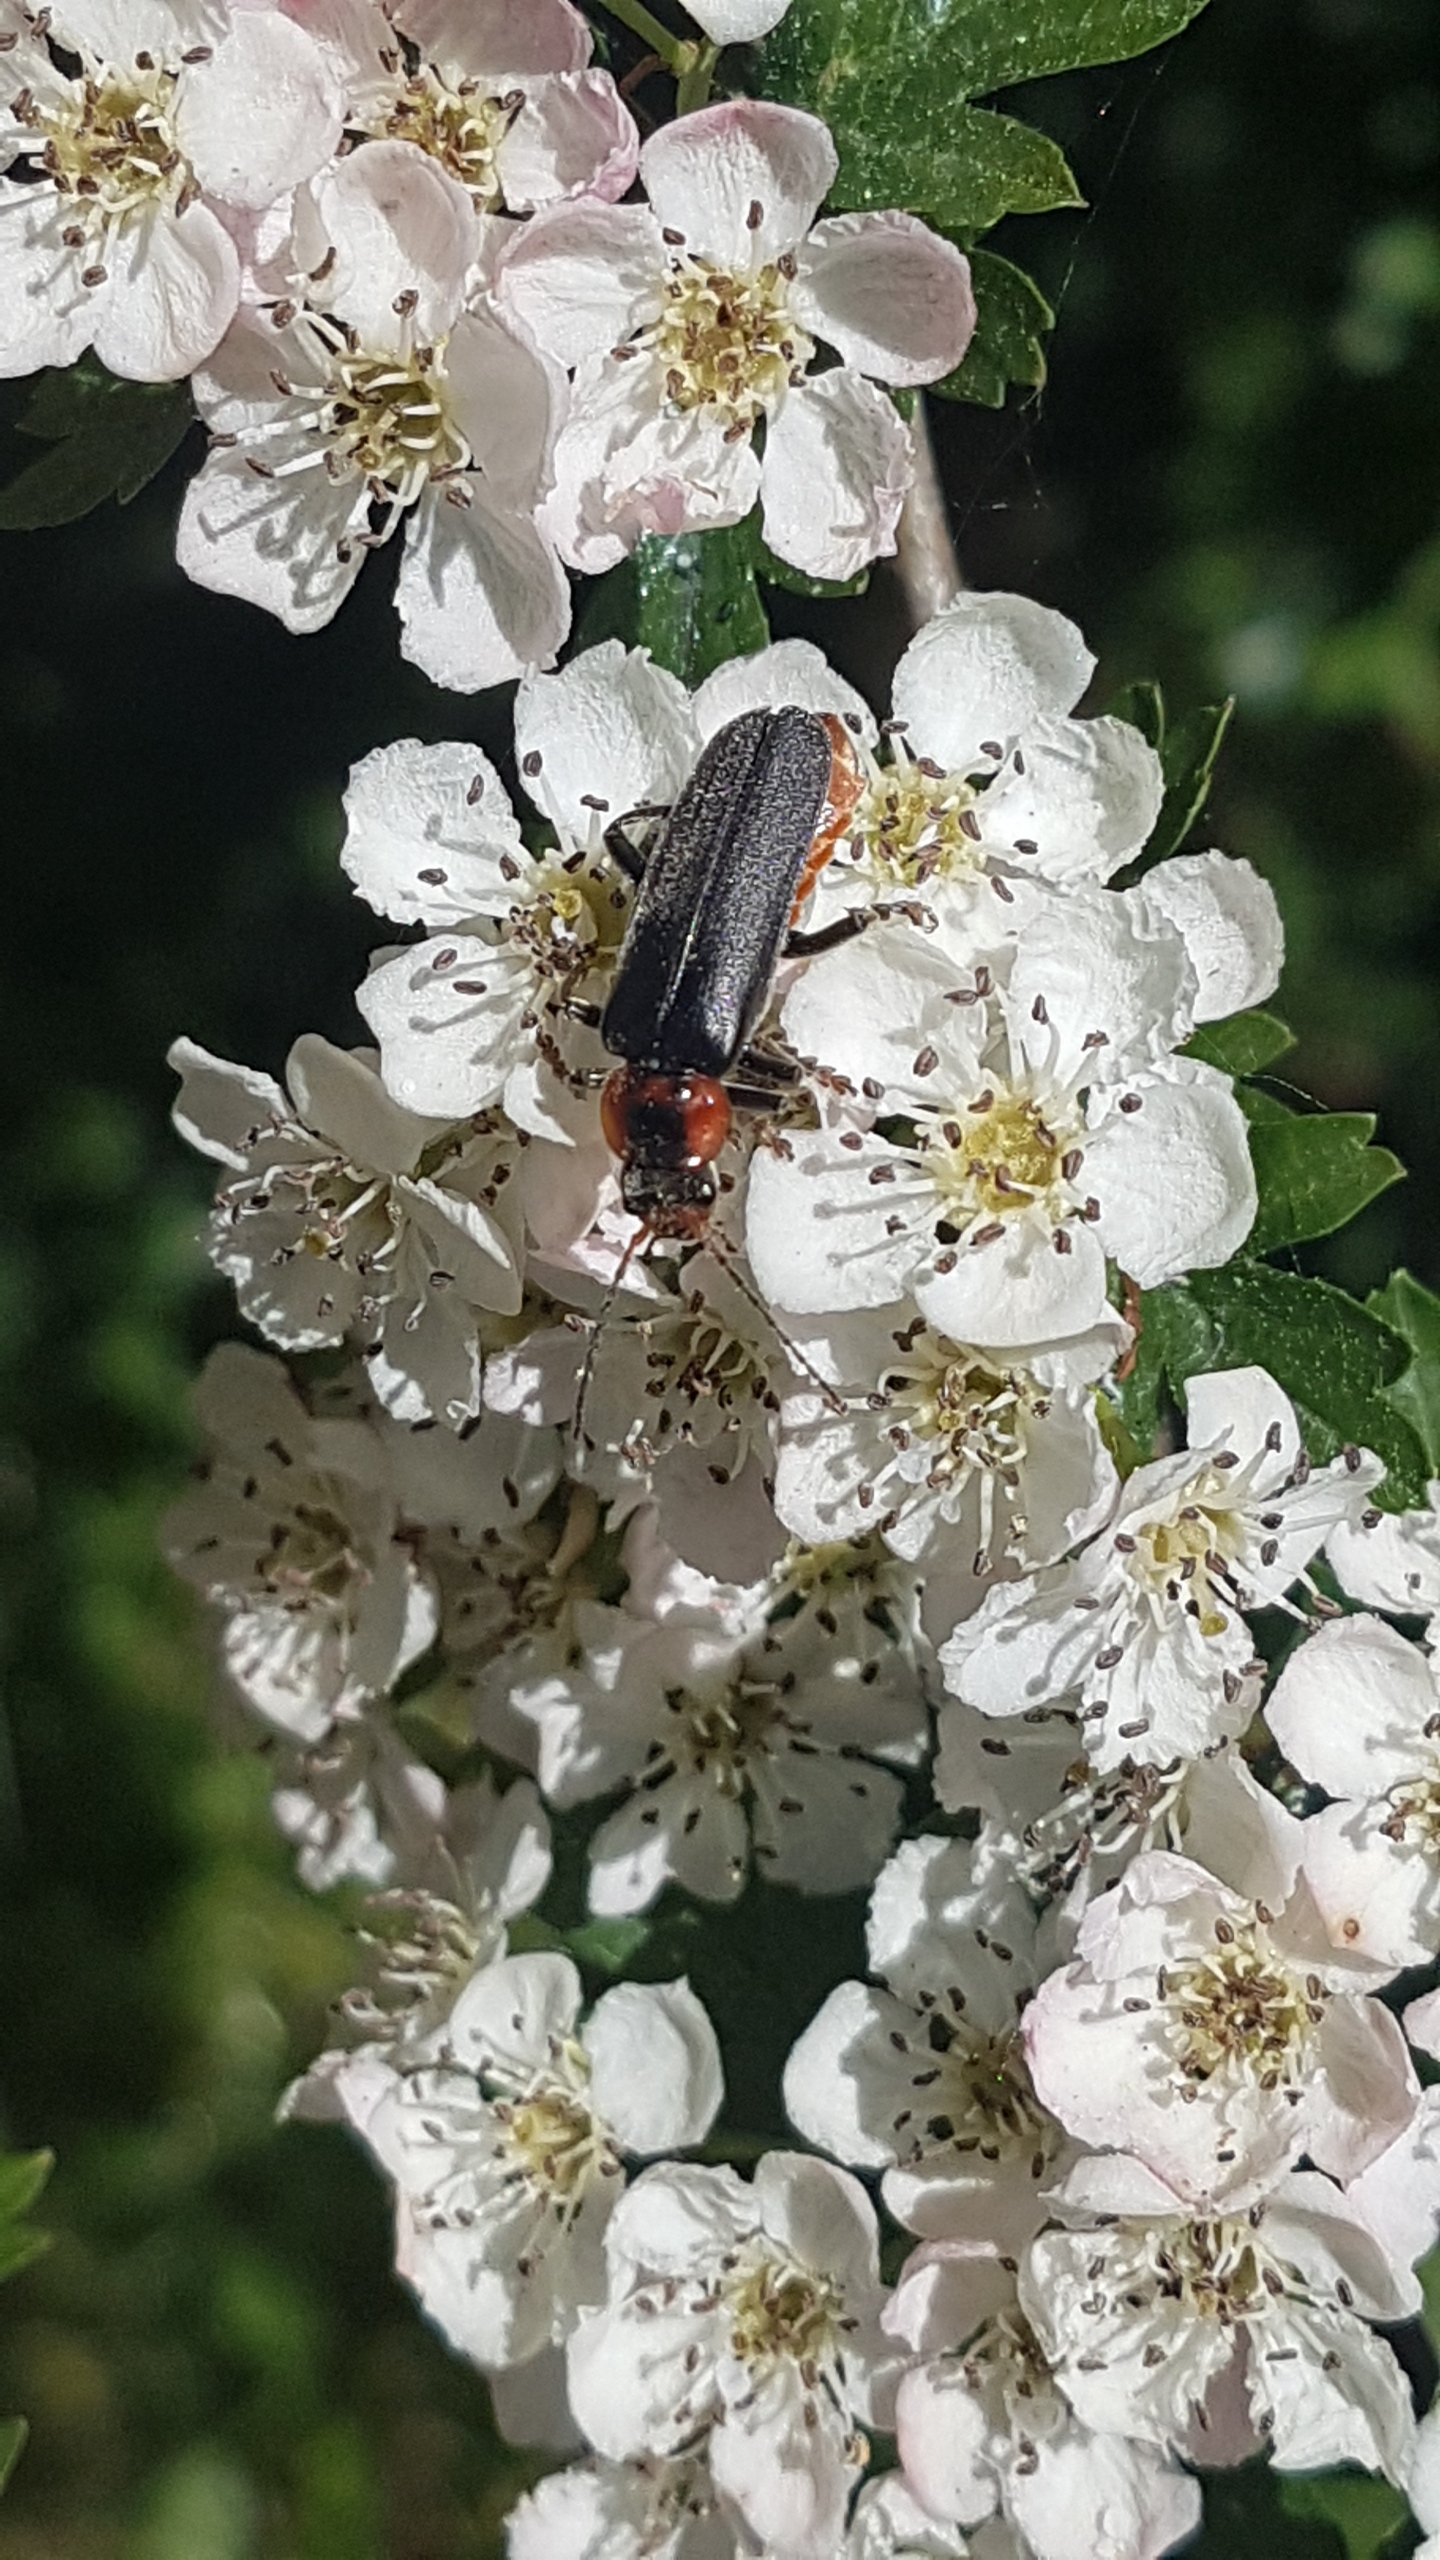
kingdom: Animalia
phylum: Arthropoda
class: Insecta
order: Coleoptera
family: Cantharidae
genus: Cantharis
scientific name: Cantharis fusca
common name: Stor blødvinge
